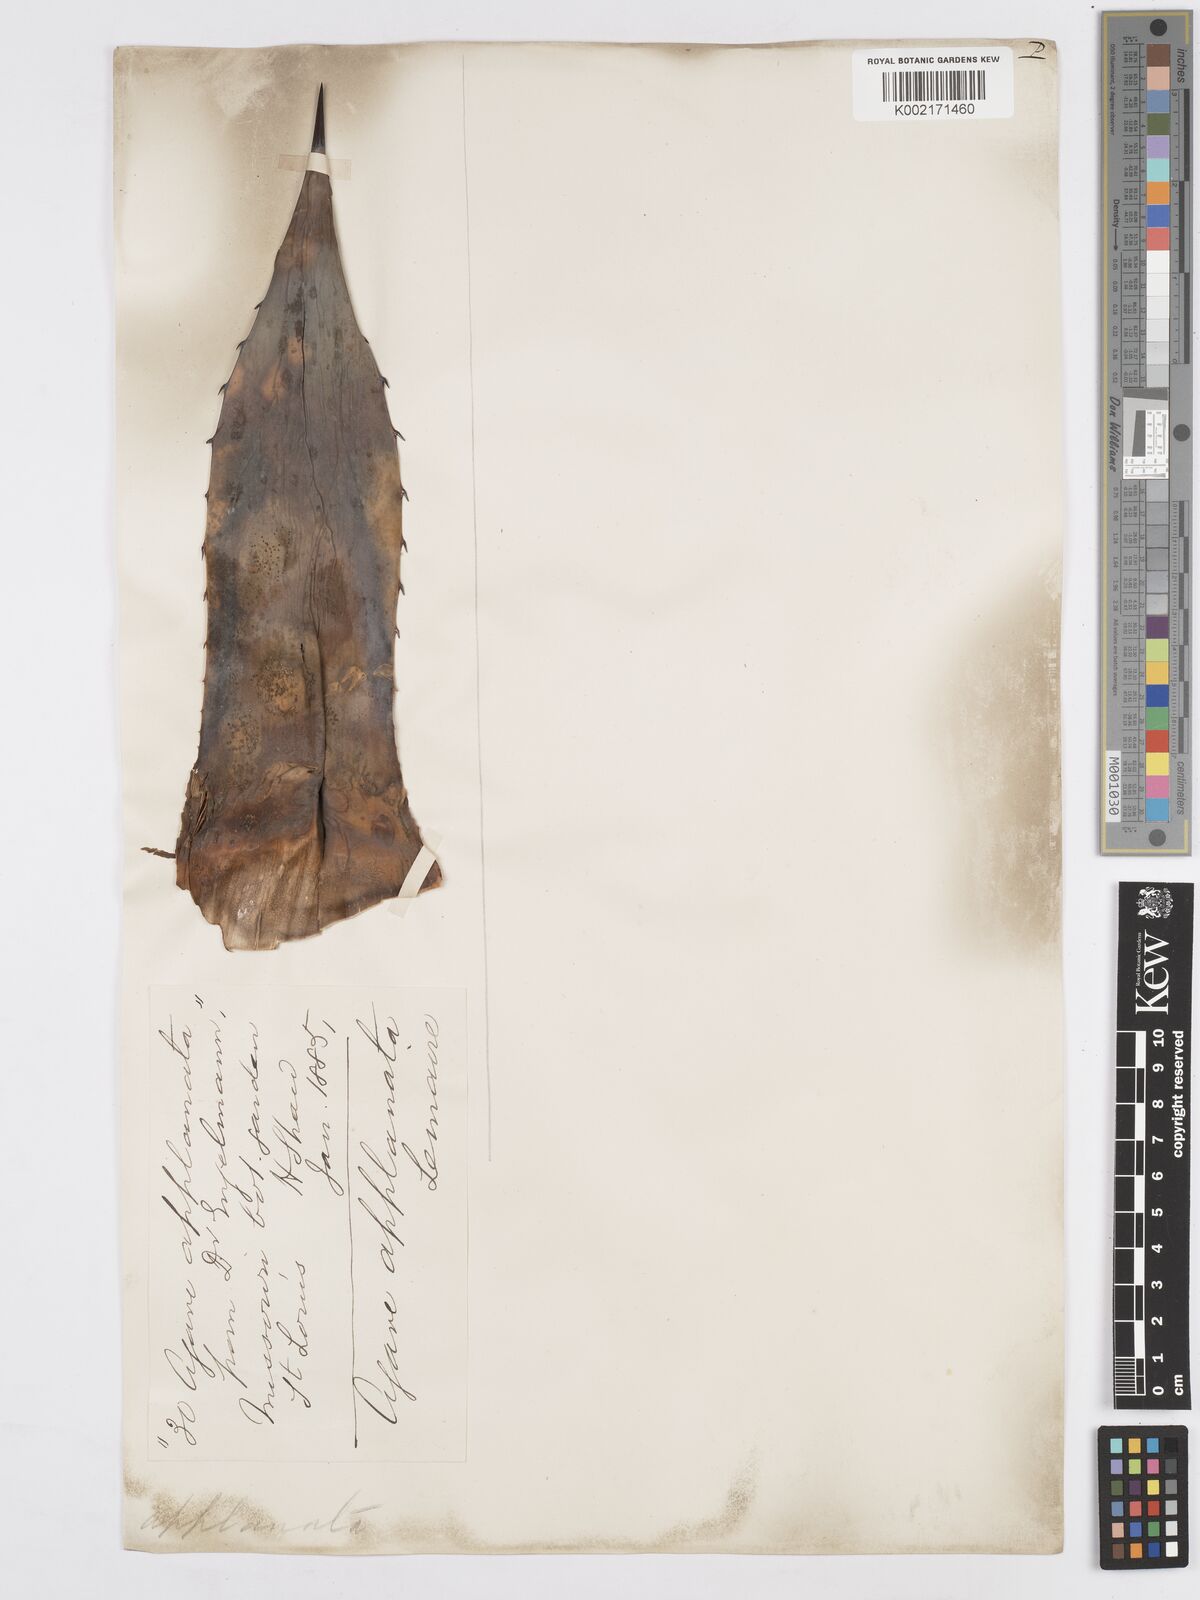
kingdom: Plantae
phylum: Tracheophyta
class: Liliopsida
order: Asparagales
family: Asparagaceae
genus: Agave
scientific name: Agave applanata
